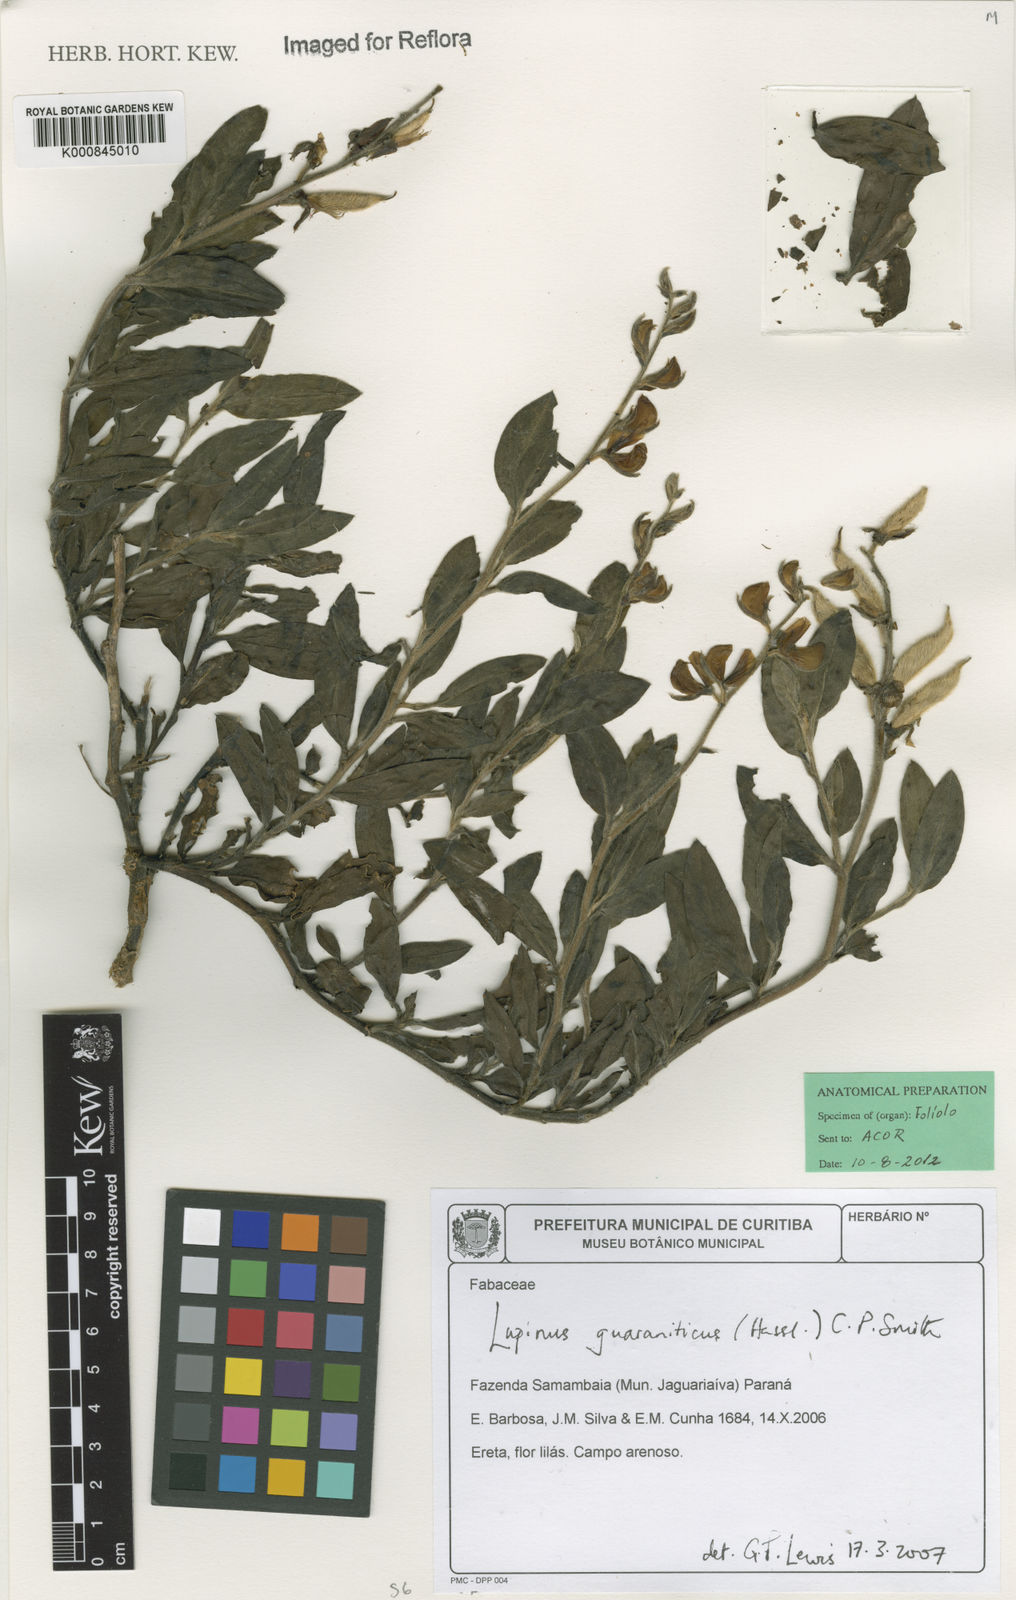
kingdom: Plantae
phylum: Tracheophyta
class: Magnoliopsida
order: Fabales
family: Fabaceae
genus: Lupinus
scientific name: Lupinus guaraniticus
